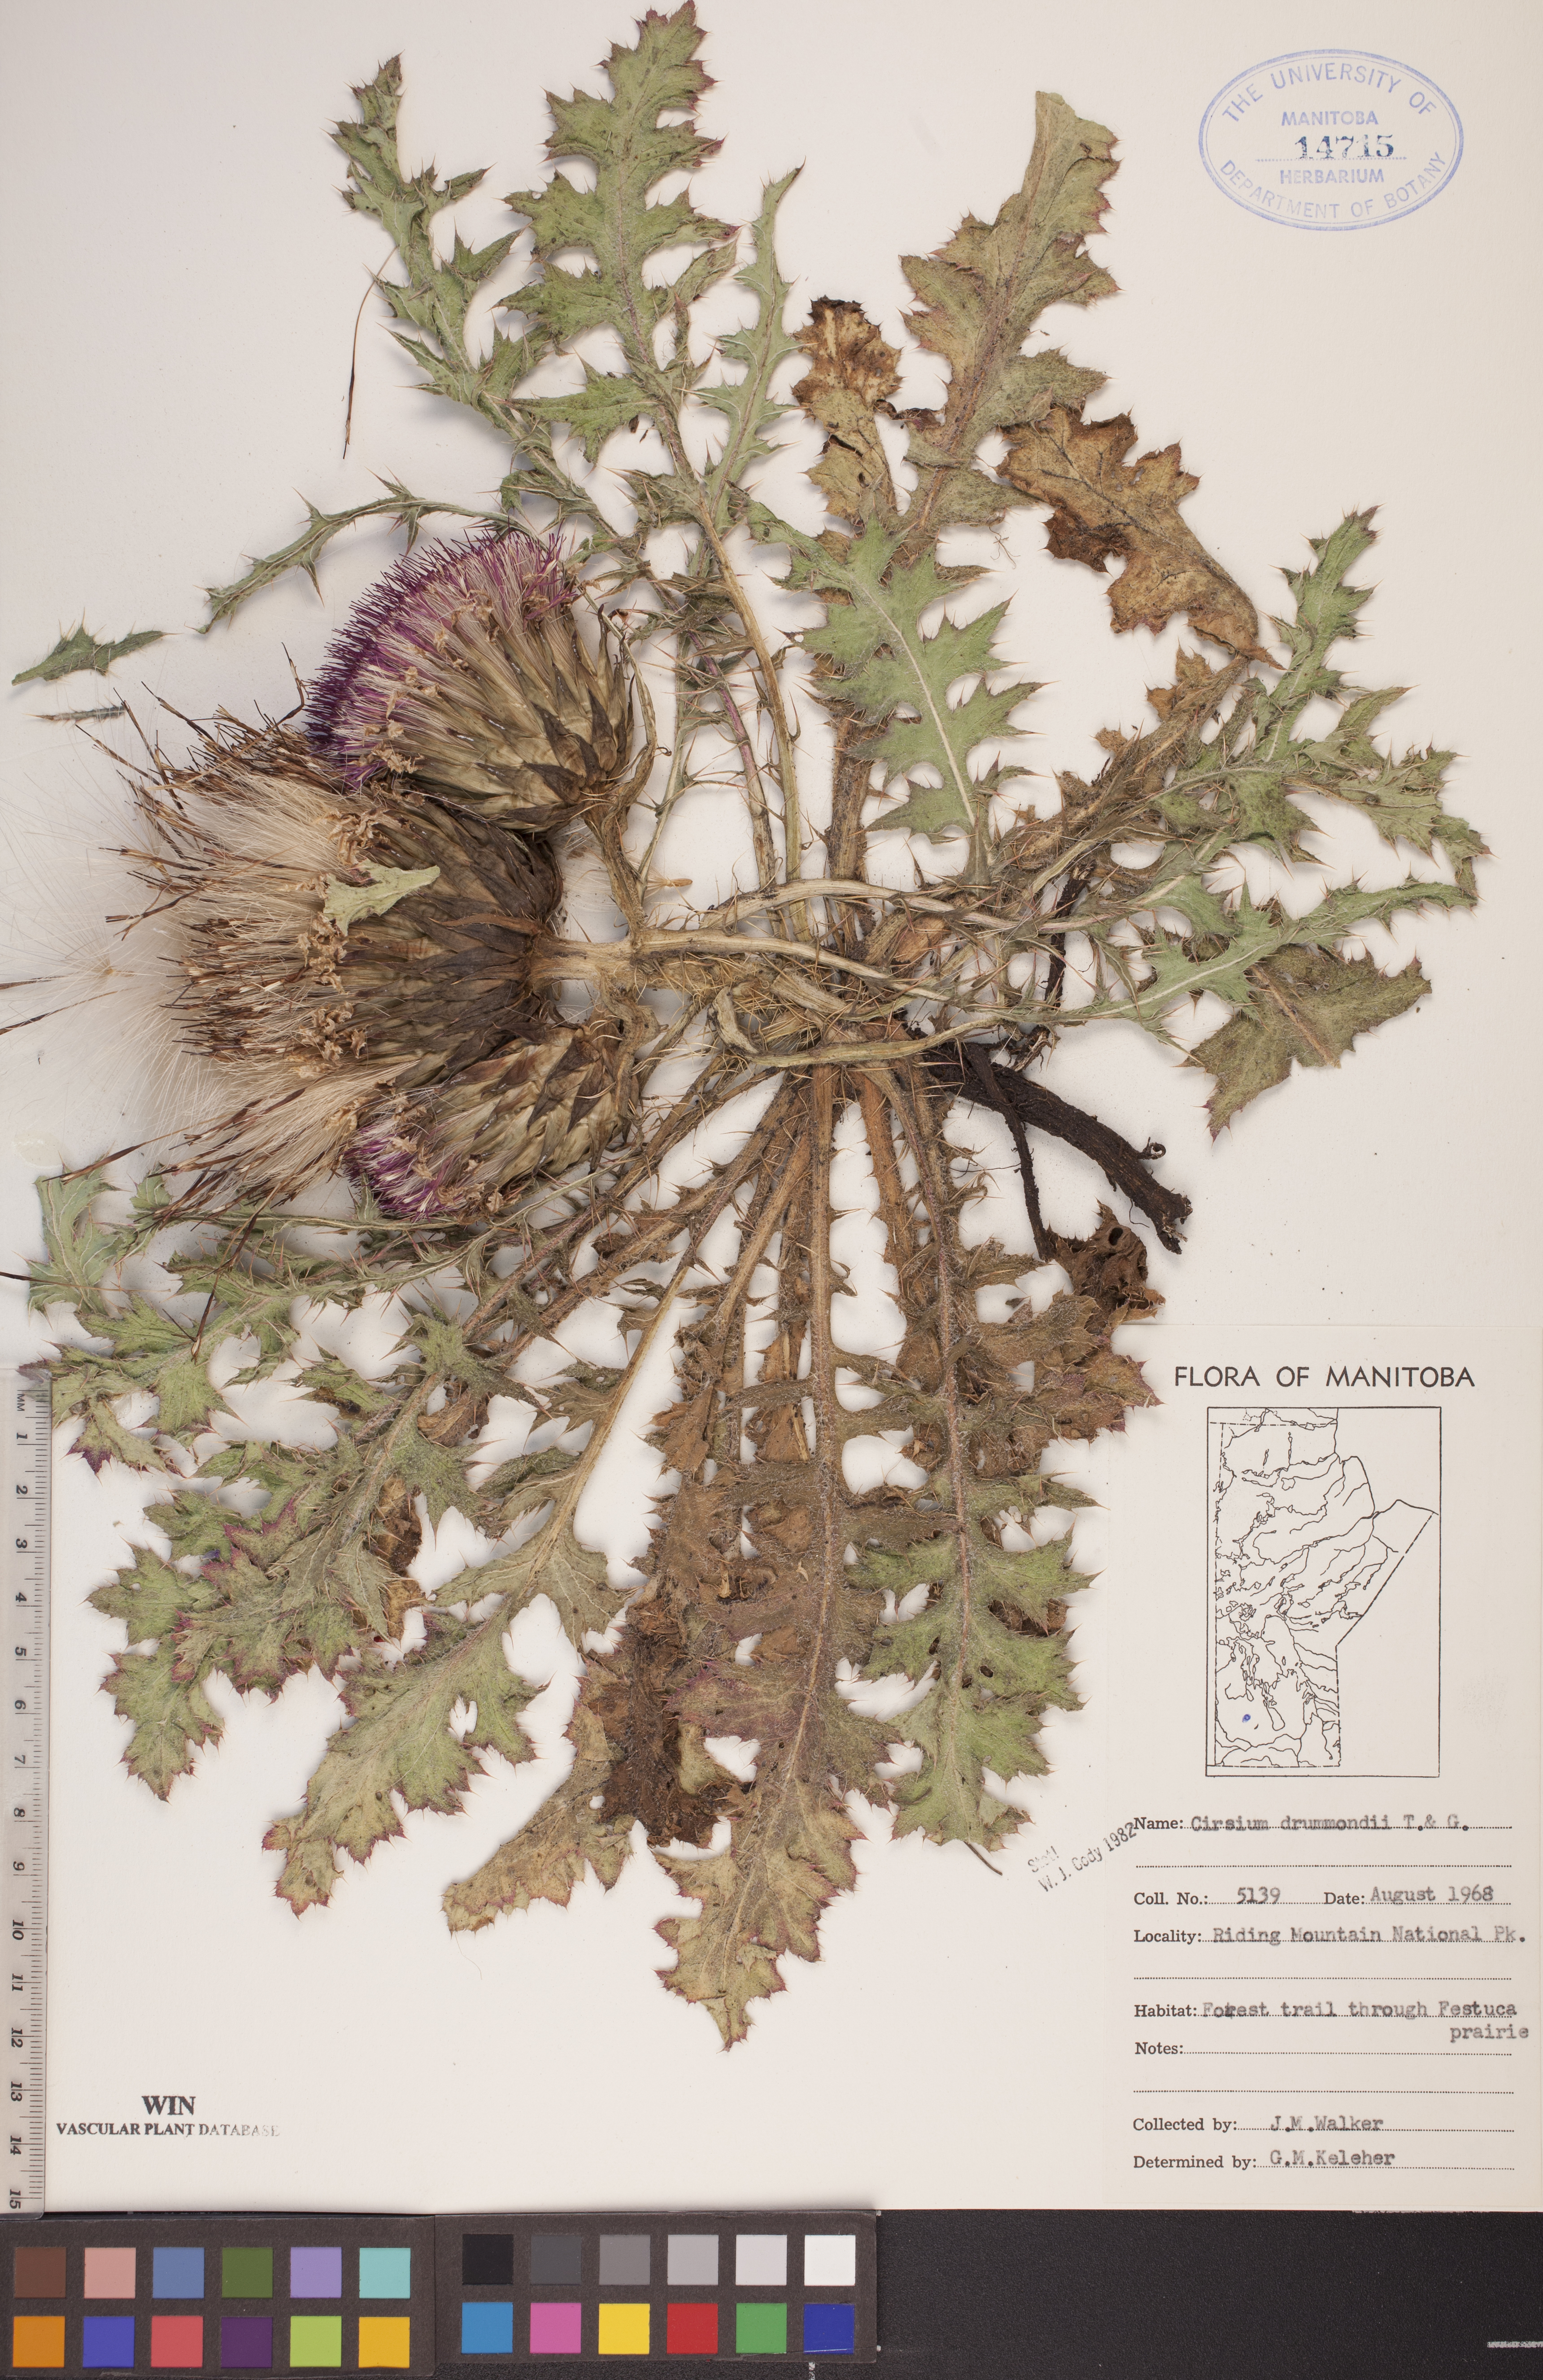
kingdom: Plantae
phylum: Tracheophyta
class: Magnoliopsida
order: Asterales
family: Asteraceae
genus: Cirsium
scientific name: Cirsium drummondii
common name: Drummond's thistle
